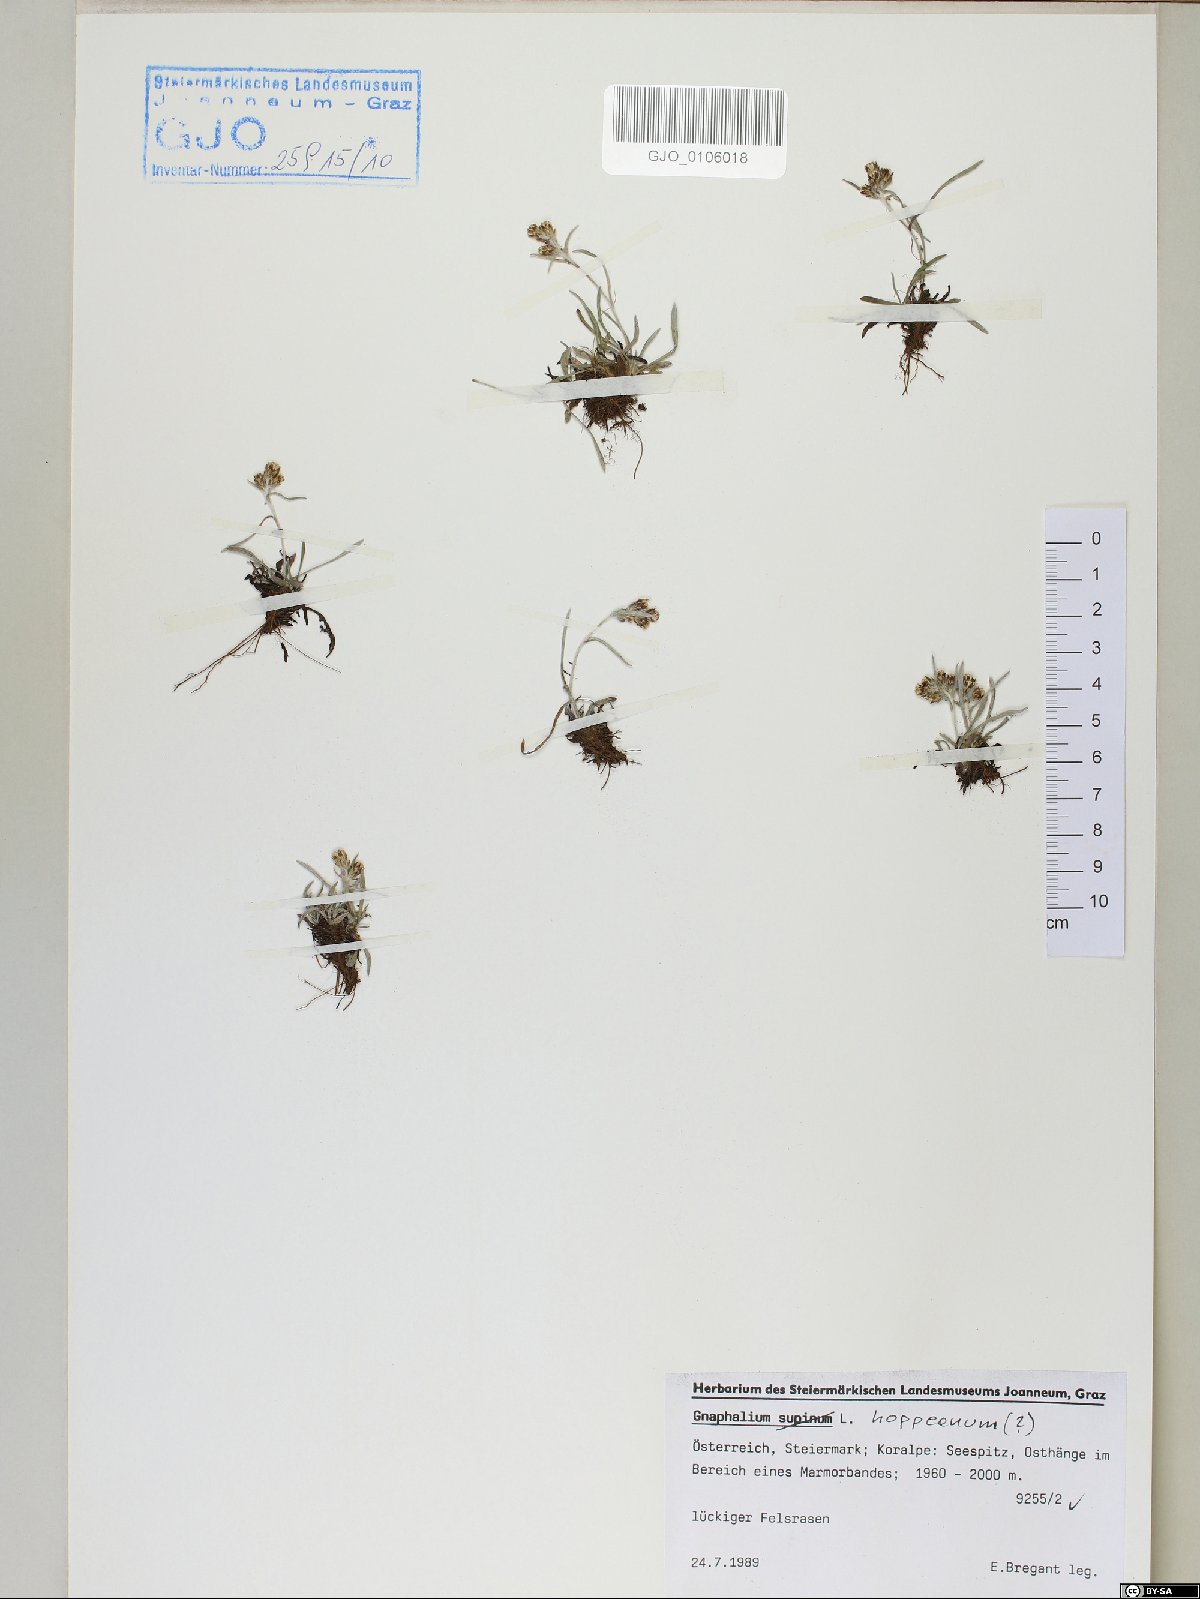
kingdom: Plantae
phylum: Tracheophyta
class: Magnoliopsida
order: Asterales
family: Asteraceae
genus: Omalotheca
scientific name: Omalotheca hoppeana
